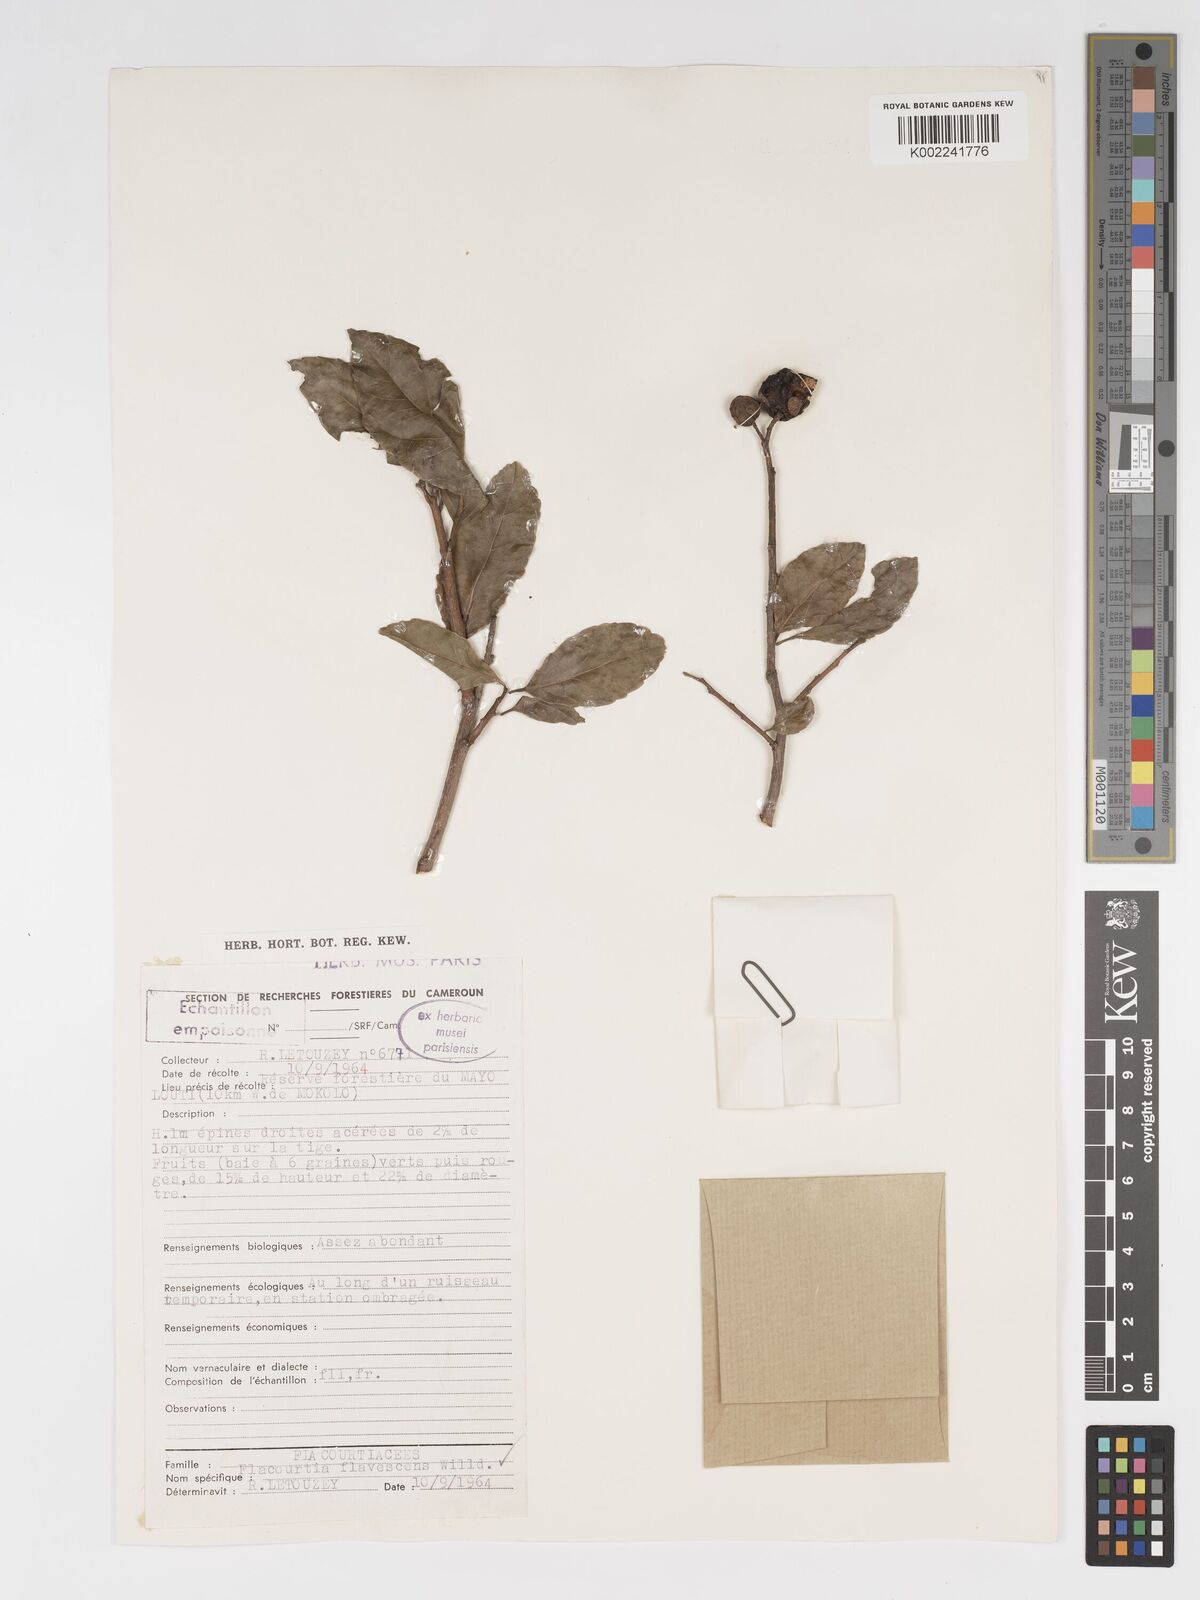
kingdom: Plantae
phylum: Tracheophyta
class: Magnoliopsida
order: Malpighiales
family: Salicaceae
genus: Flacourtia
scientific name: Flacourtia indica
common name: Governor's plum
